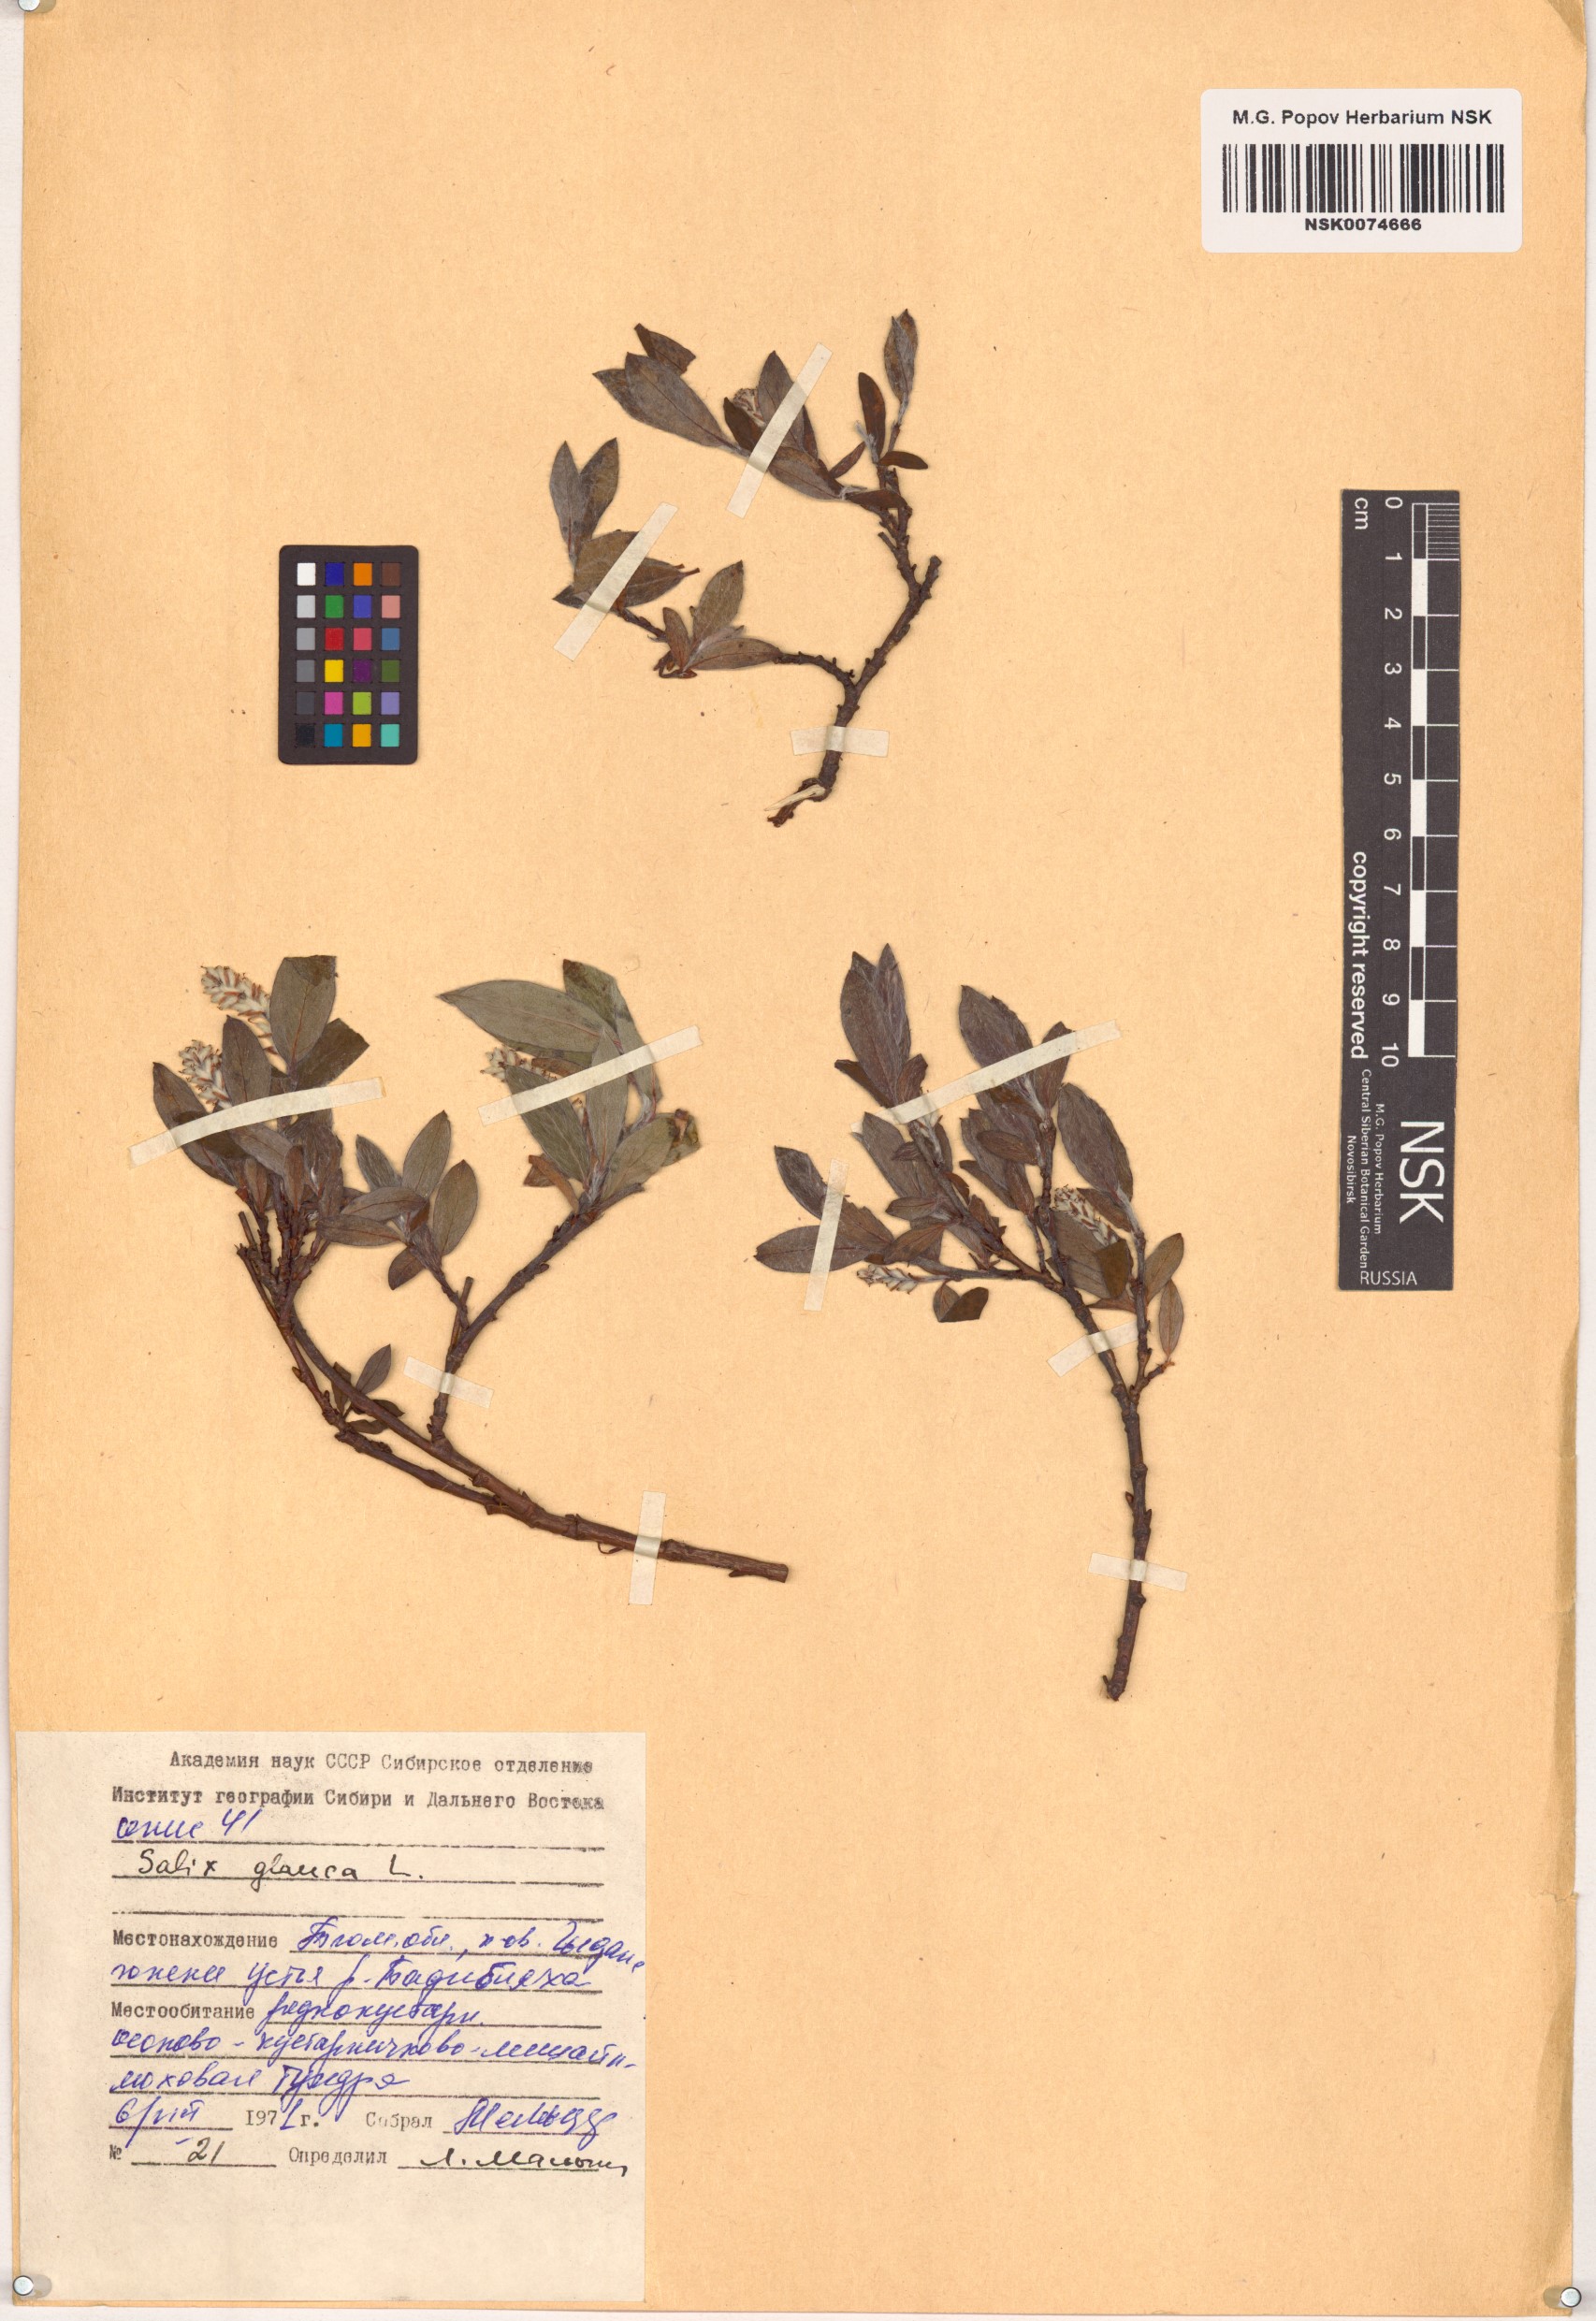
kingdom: Plantae
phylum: Tracheophyta
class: Magnoliopsida
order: Malpighiales
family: Salicaceae
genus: Salix
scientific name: Salix glauca
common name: Glaucous willow
